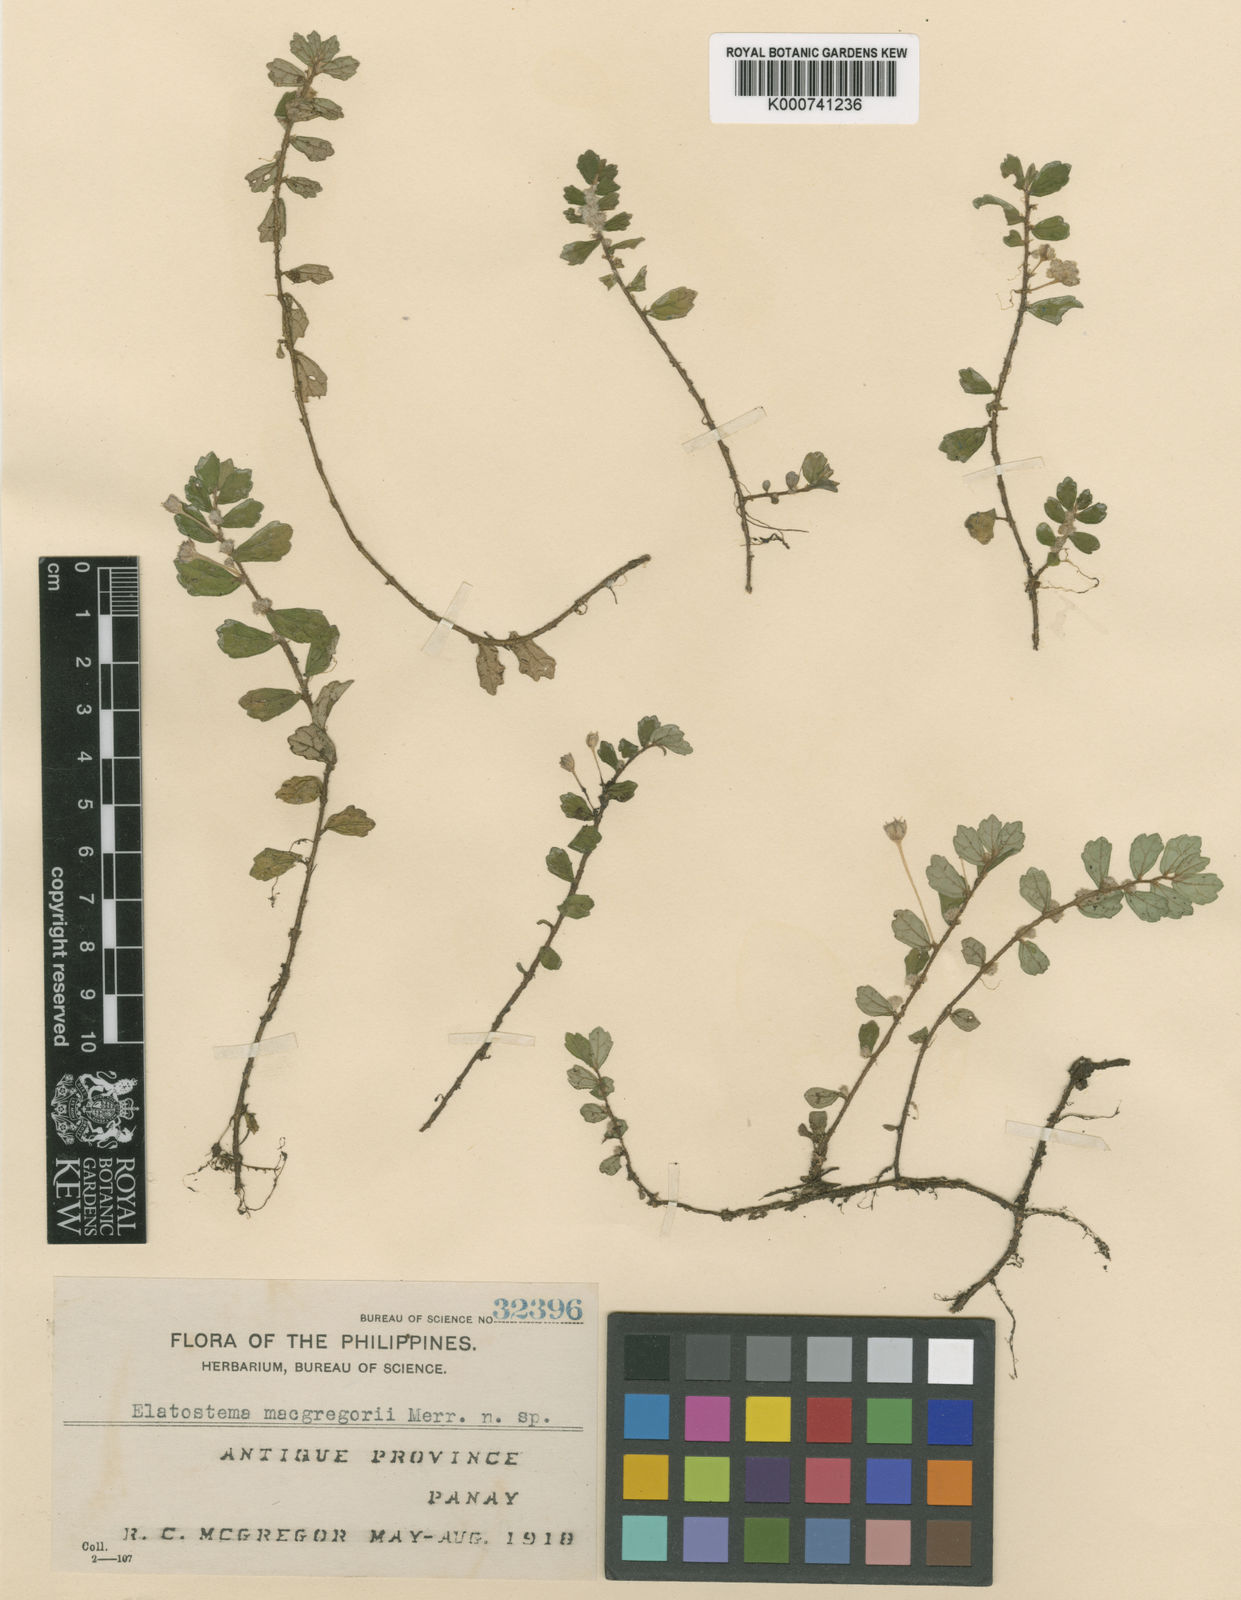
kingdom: Plantae
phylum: Tracheophyta
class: Magnoliopsida
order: Rosales
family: Urticaceae
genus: Elatostema
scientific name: Elatostema macgregorii
